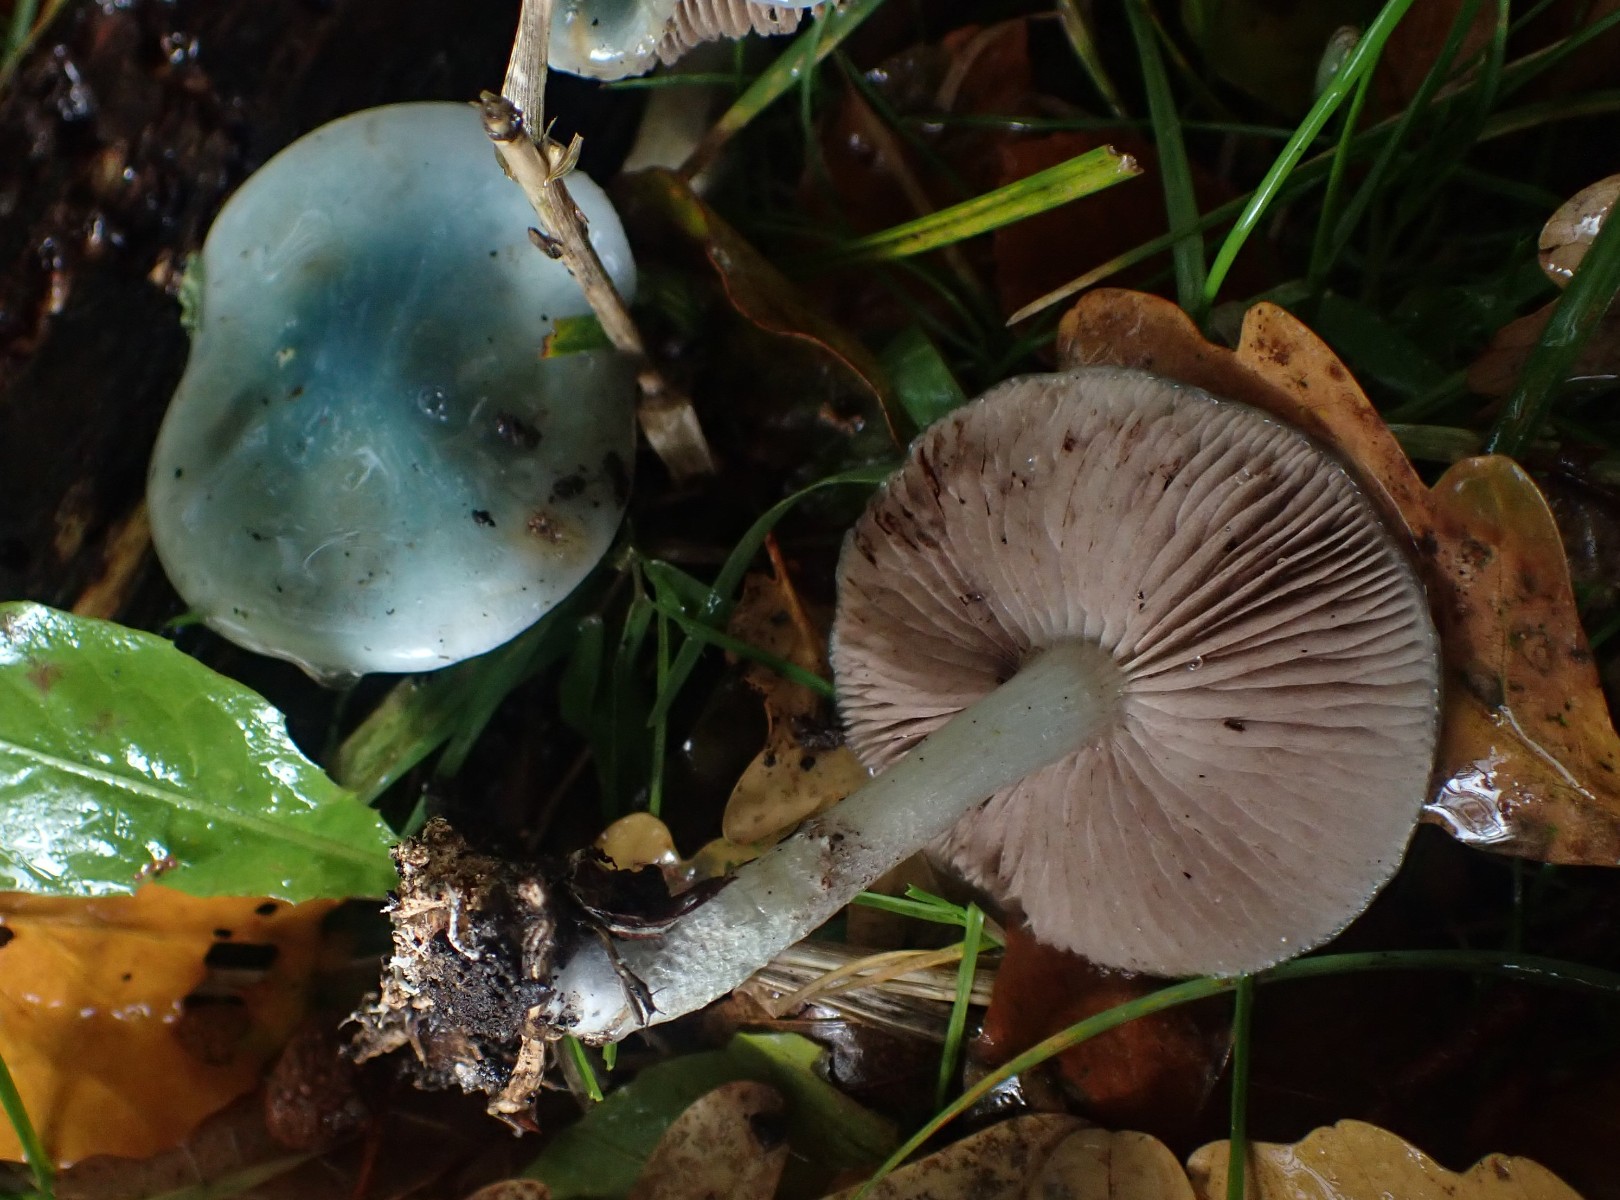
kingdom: Fungi
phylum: Basidiomycota
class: Agaricomycetes
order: Agaricales
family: Strophariaceae
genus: Stropharia
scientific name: Stropharia cyanea
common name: blågrøn bredblad
